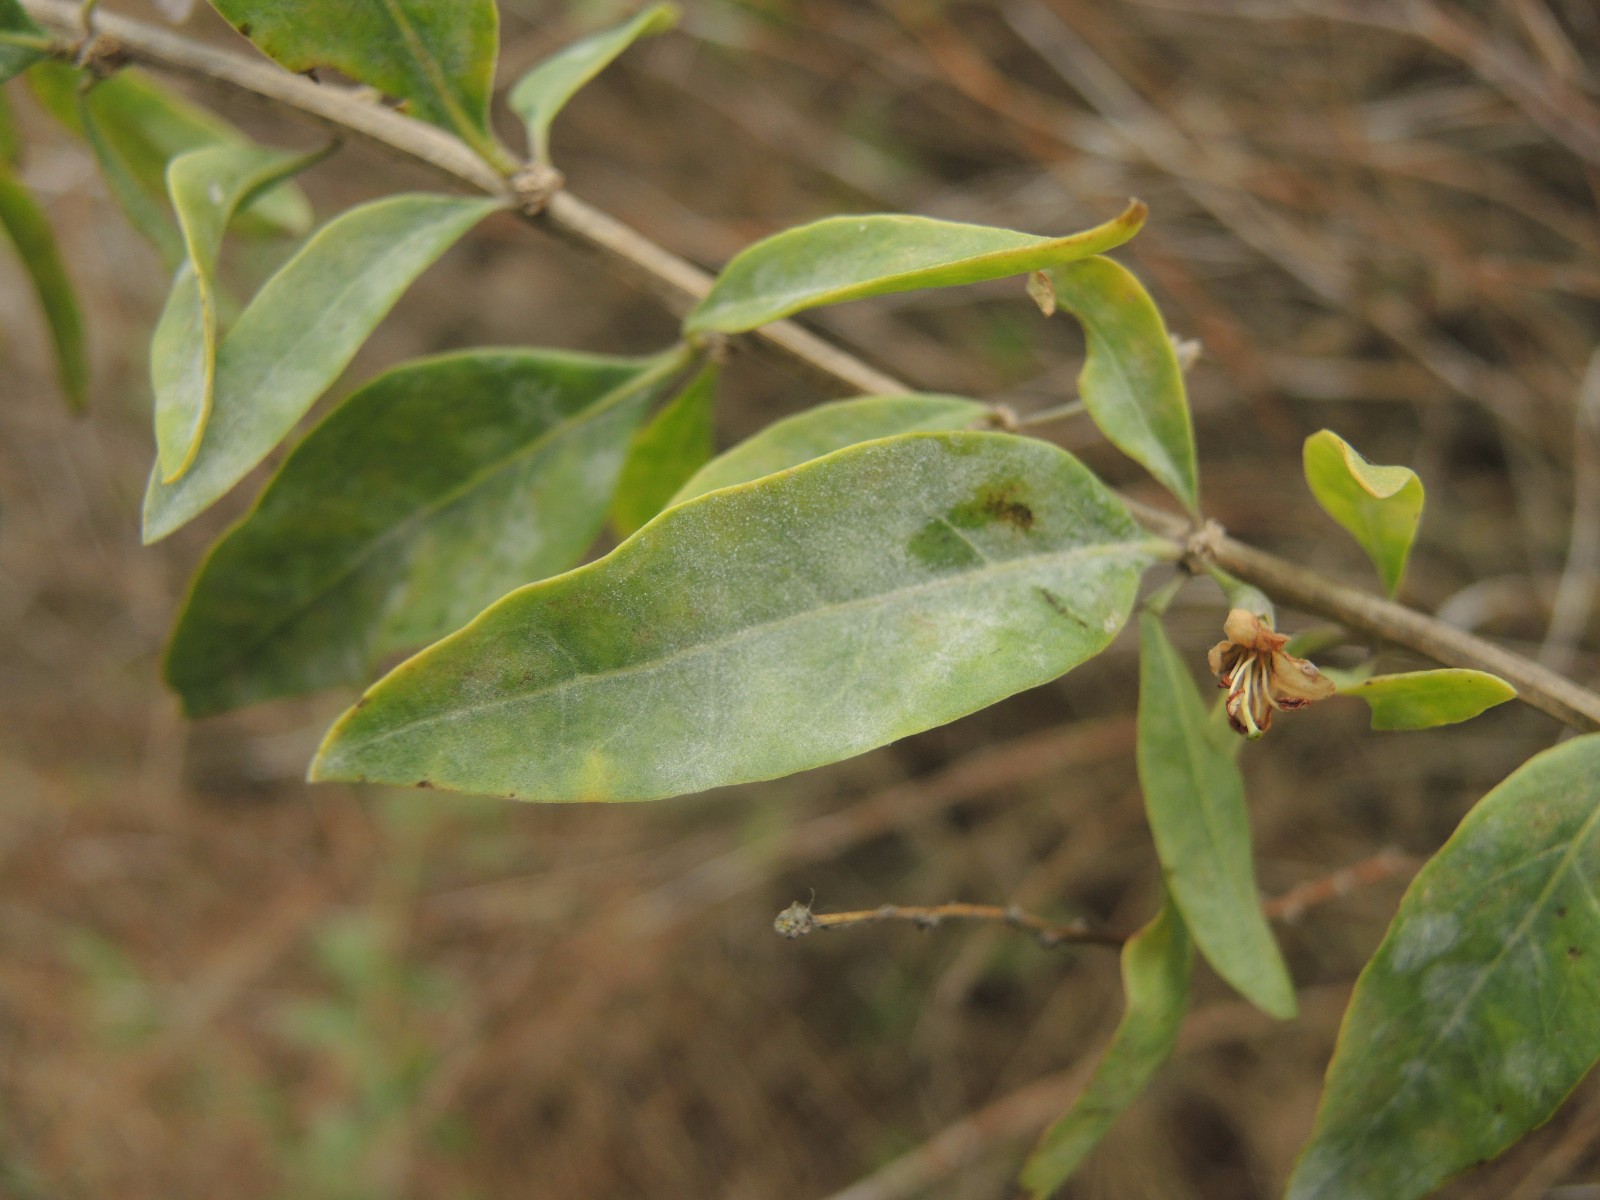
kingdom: Fungi
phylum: Ascomycota
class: Leotiomycetes
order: Helotiales
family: Erysiphaceae
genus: Erysiphe
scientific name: Erysiphe mougeotii
